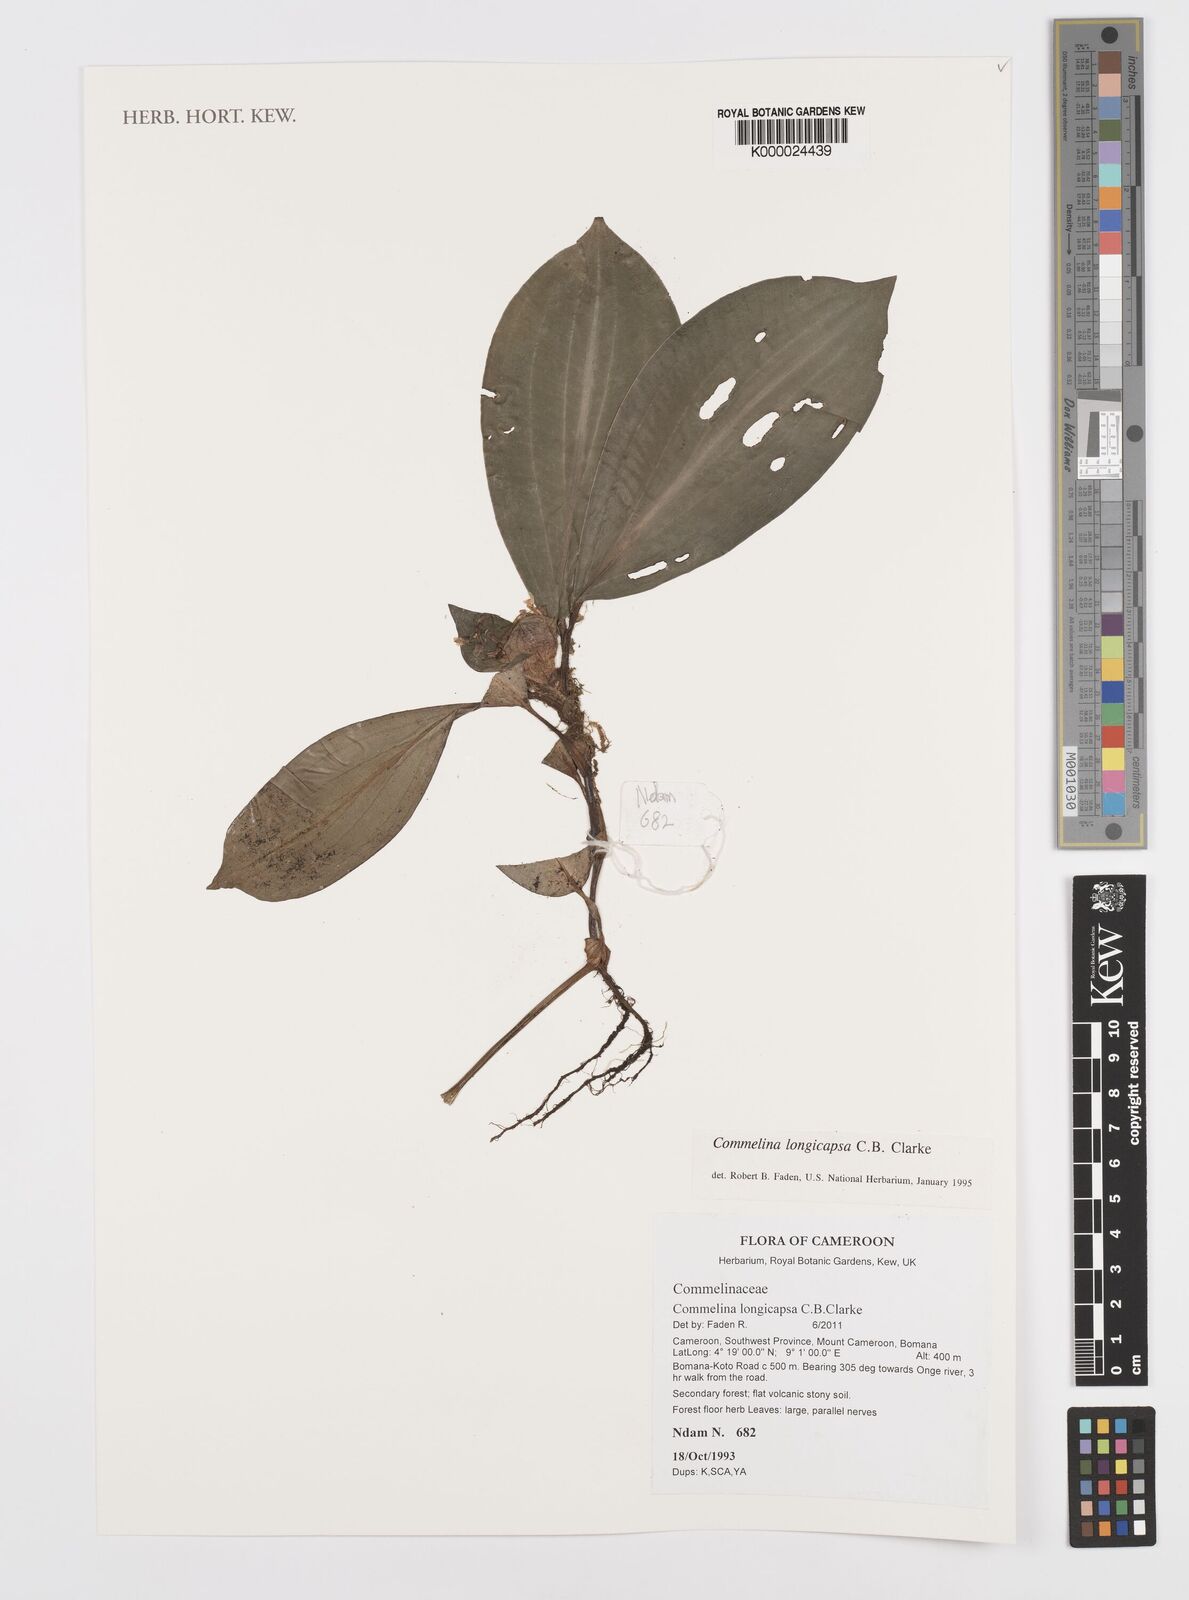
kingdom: Plantae
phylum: Tracheophyta
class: Liliopsida
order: Commelinales
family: Commelinaceae
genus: Commelina
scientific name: Commelina longicapsa
